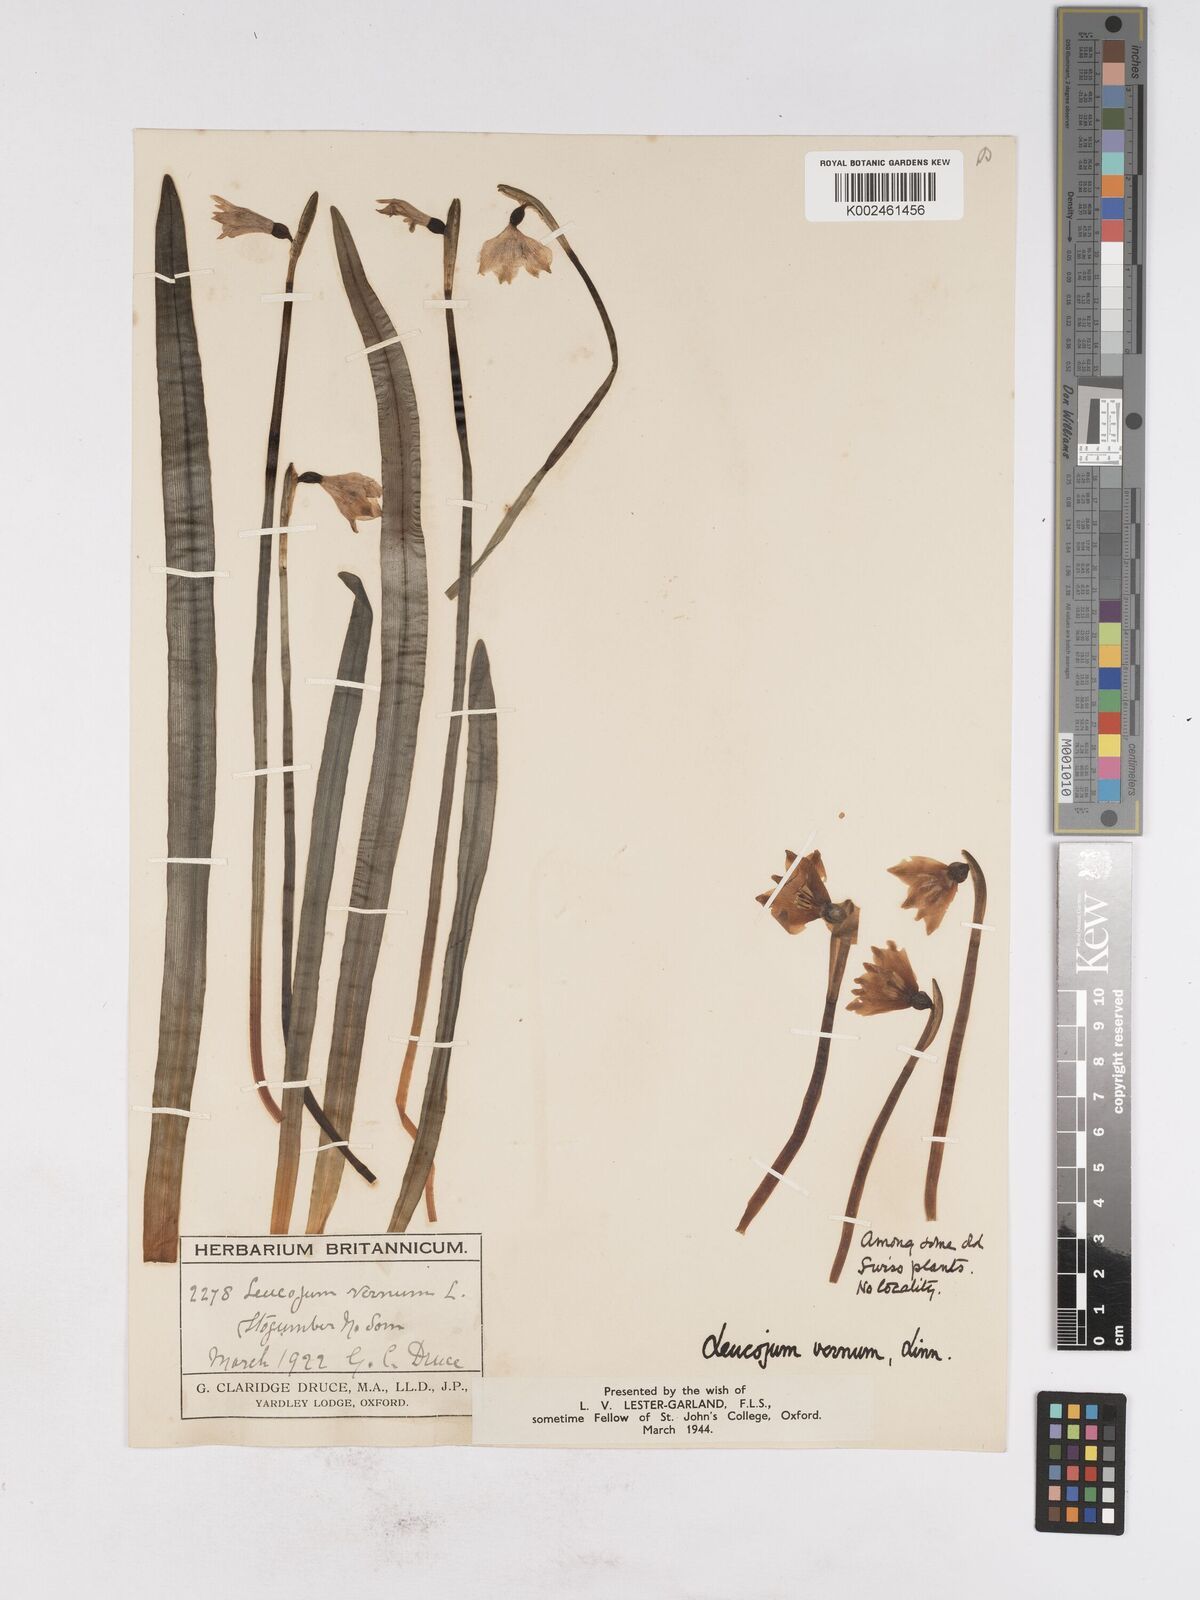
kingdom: Plantae
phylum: Tracheophyta
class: Liliopsida
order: Asparagales
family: Amaryllidaceae
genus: Leucojum
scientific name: Leucojum vernum
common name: Spring snowflake
